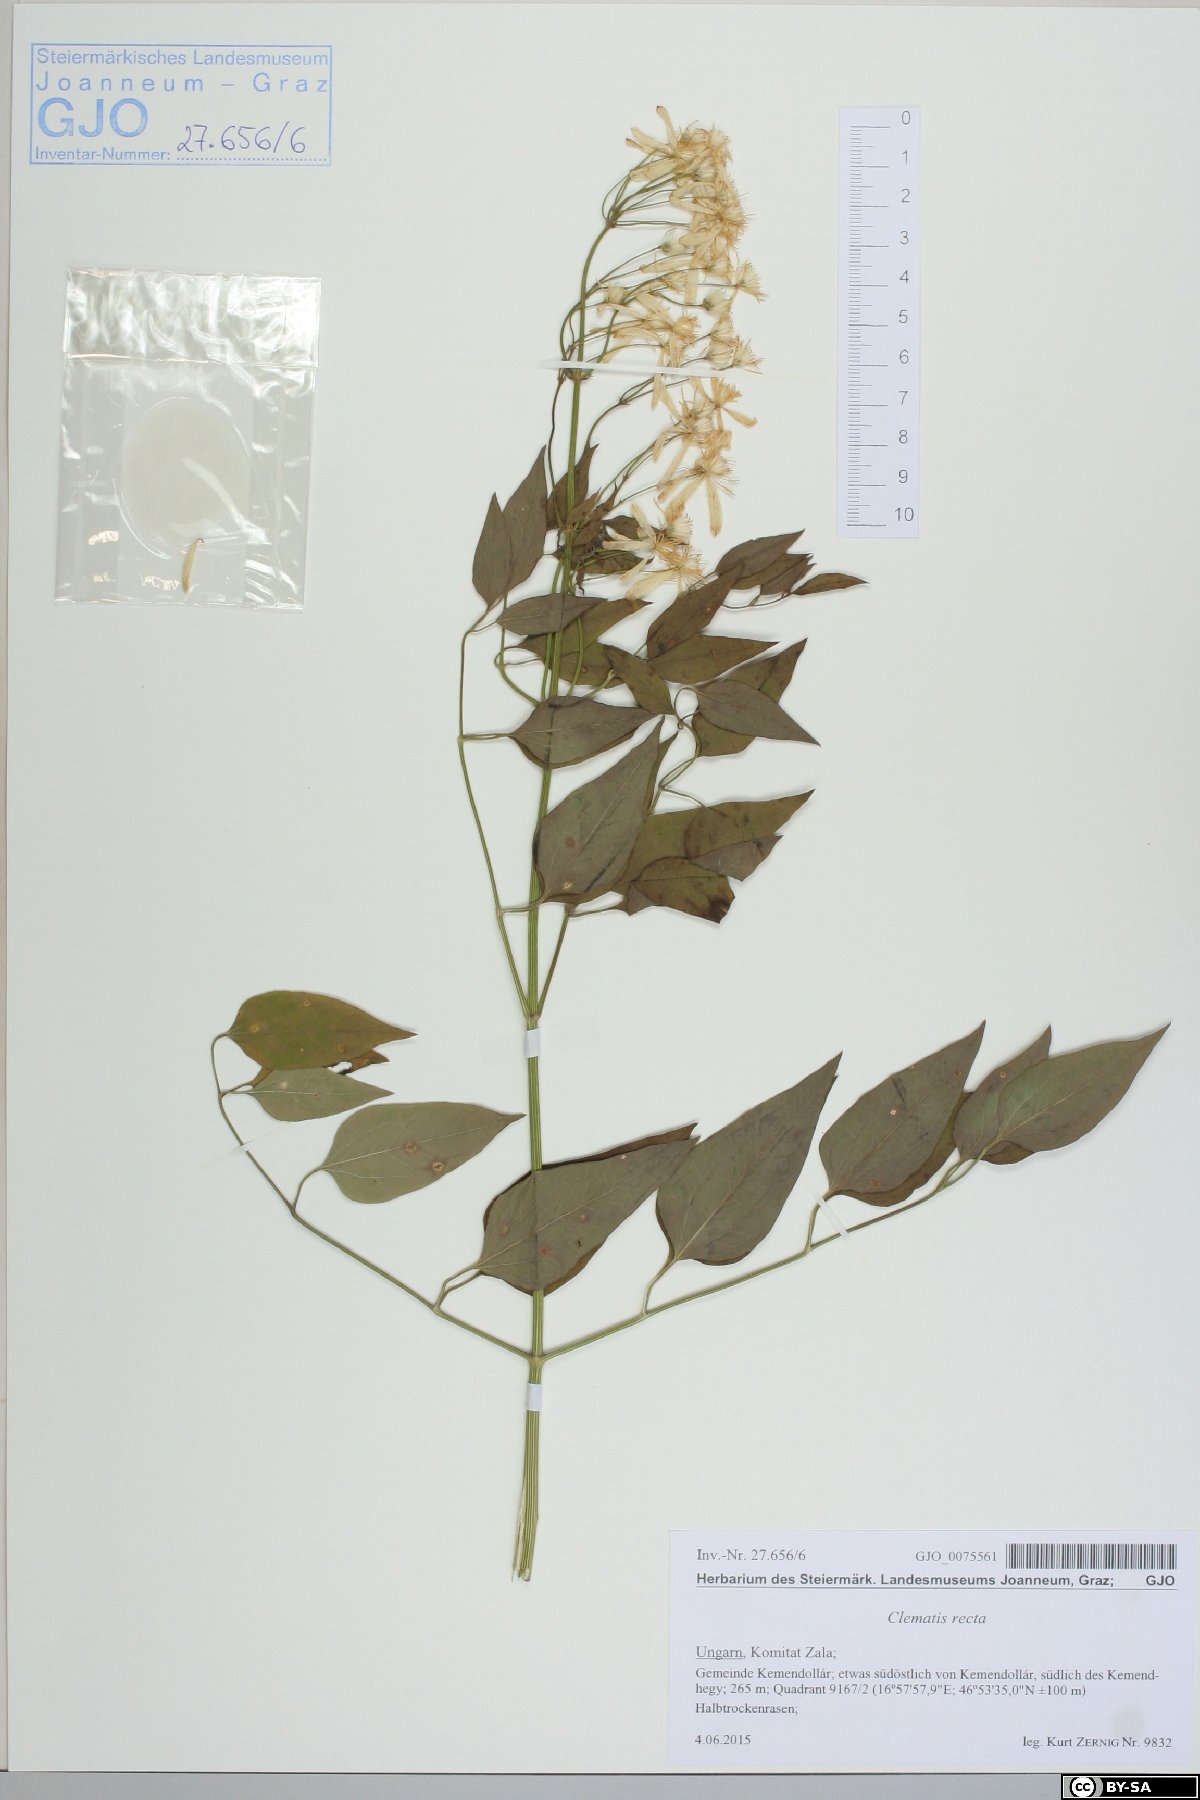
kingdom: Plantae
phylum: Tracheophyta
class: Magnoliopsida
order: Ranunculales
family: Ranunculaceae
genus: Clematis
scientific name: Clematis recta
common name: Ground clematis
